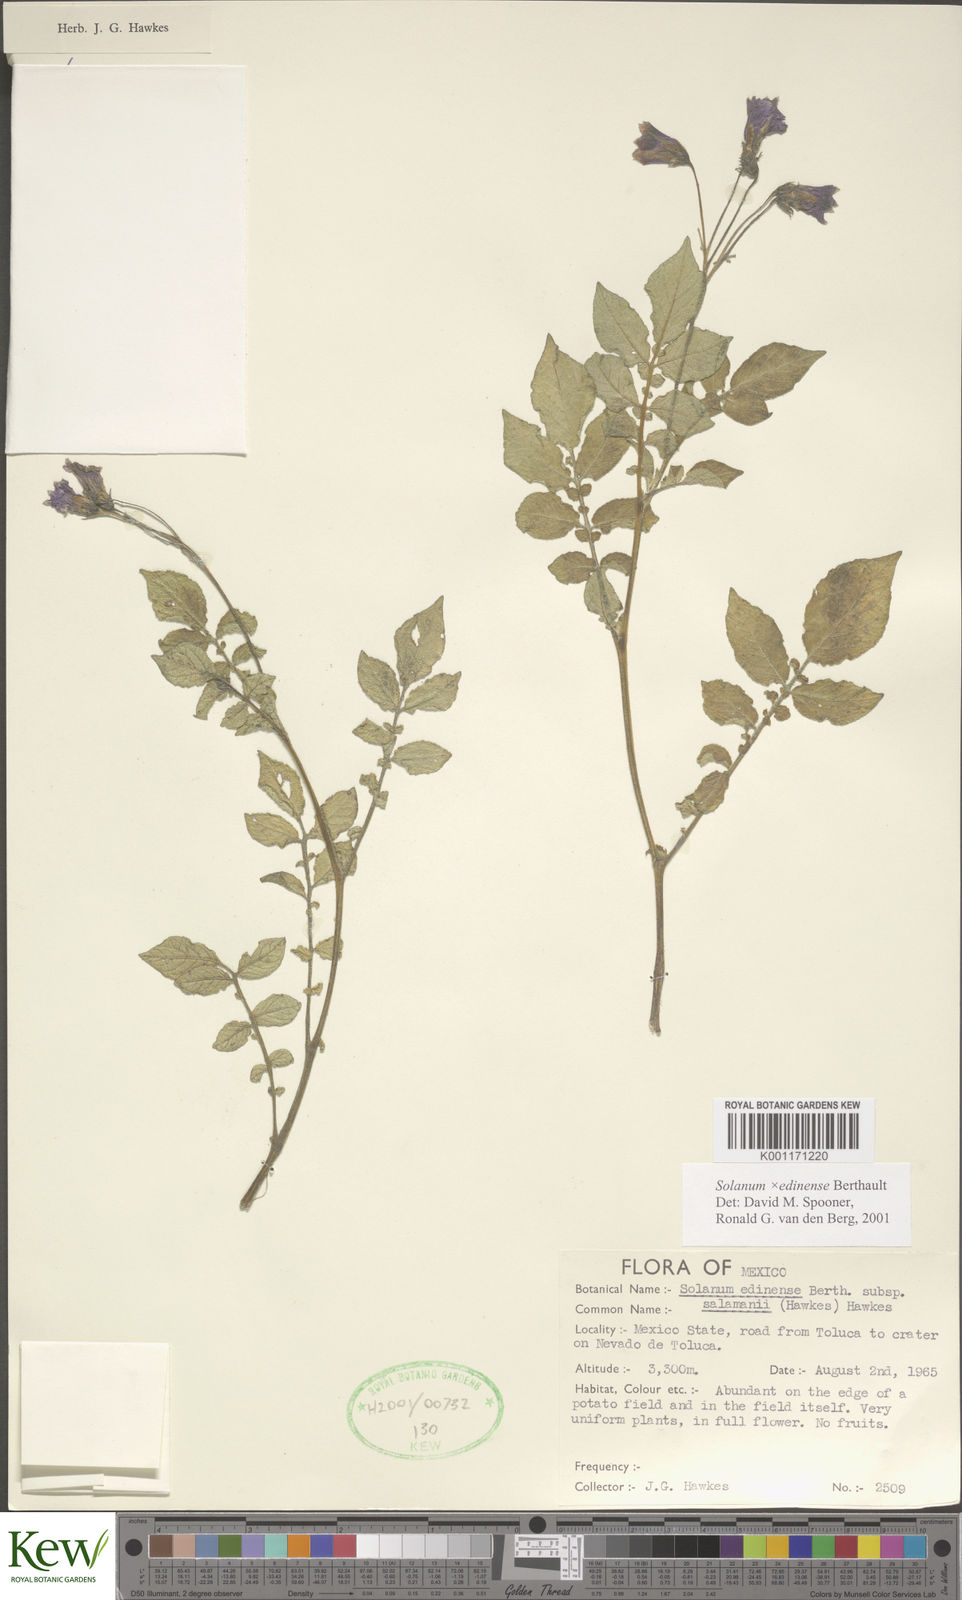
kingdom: Plantae
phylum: Tracheophyta
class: Magnoliopsida
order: Solanales
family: Solanaceae
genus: Solanum
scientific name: Solanum edinense
